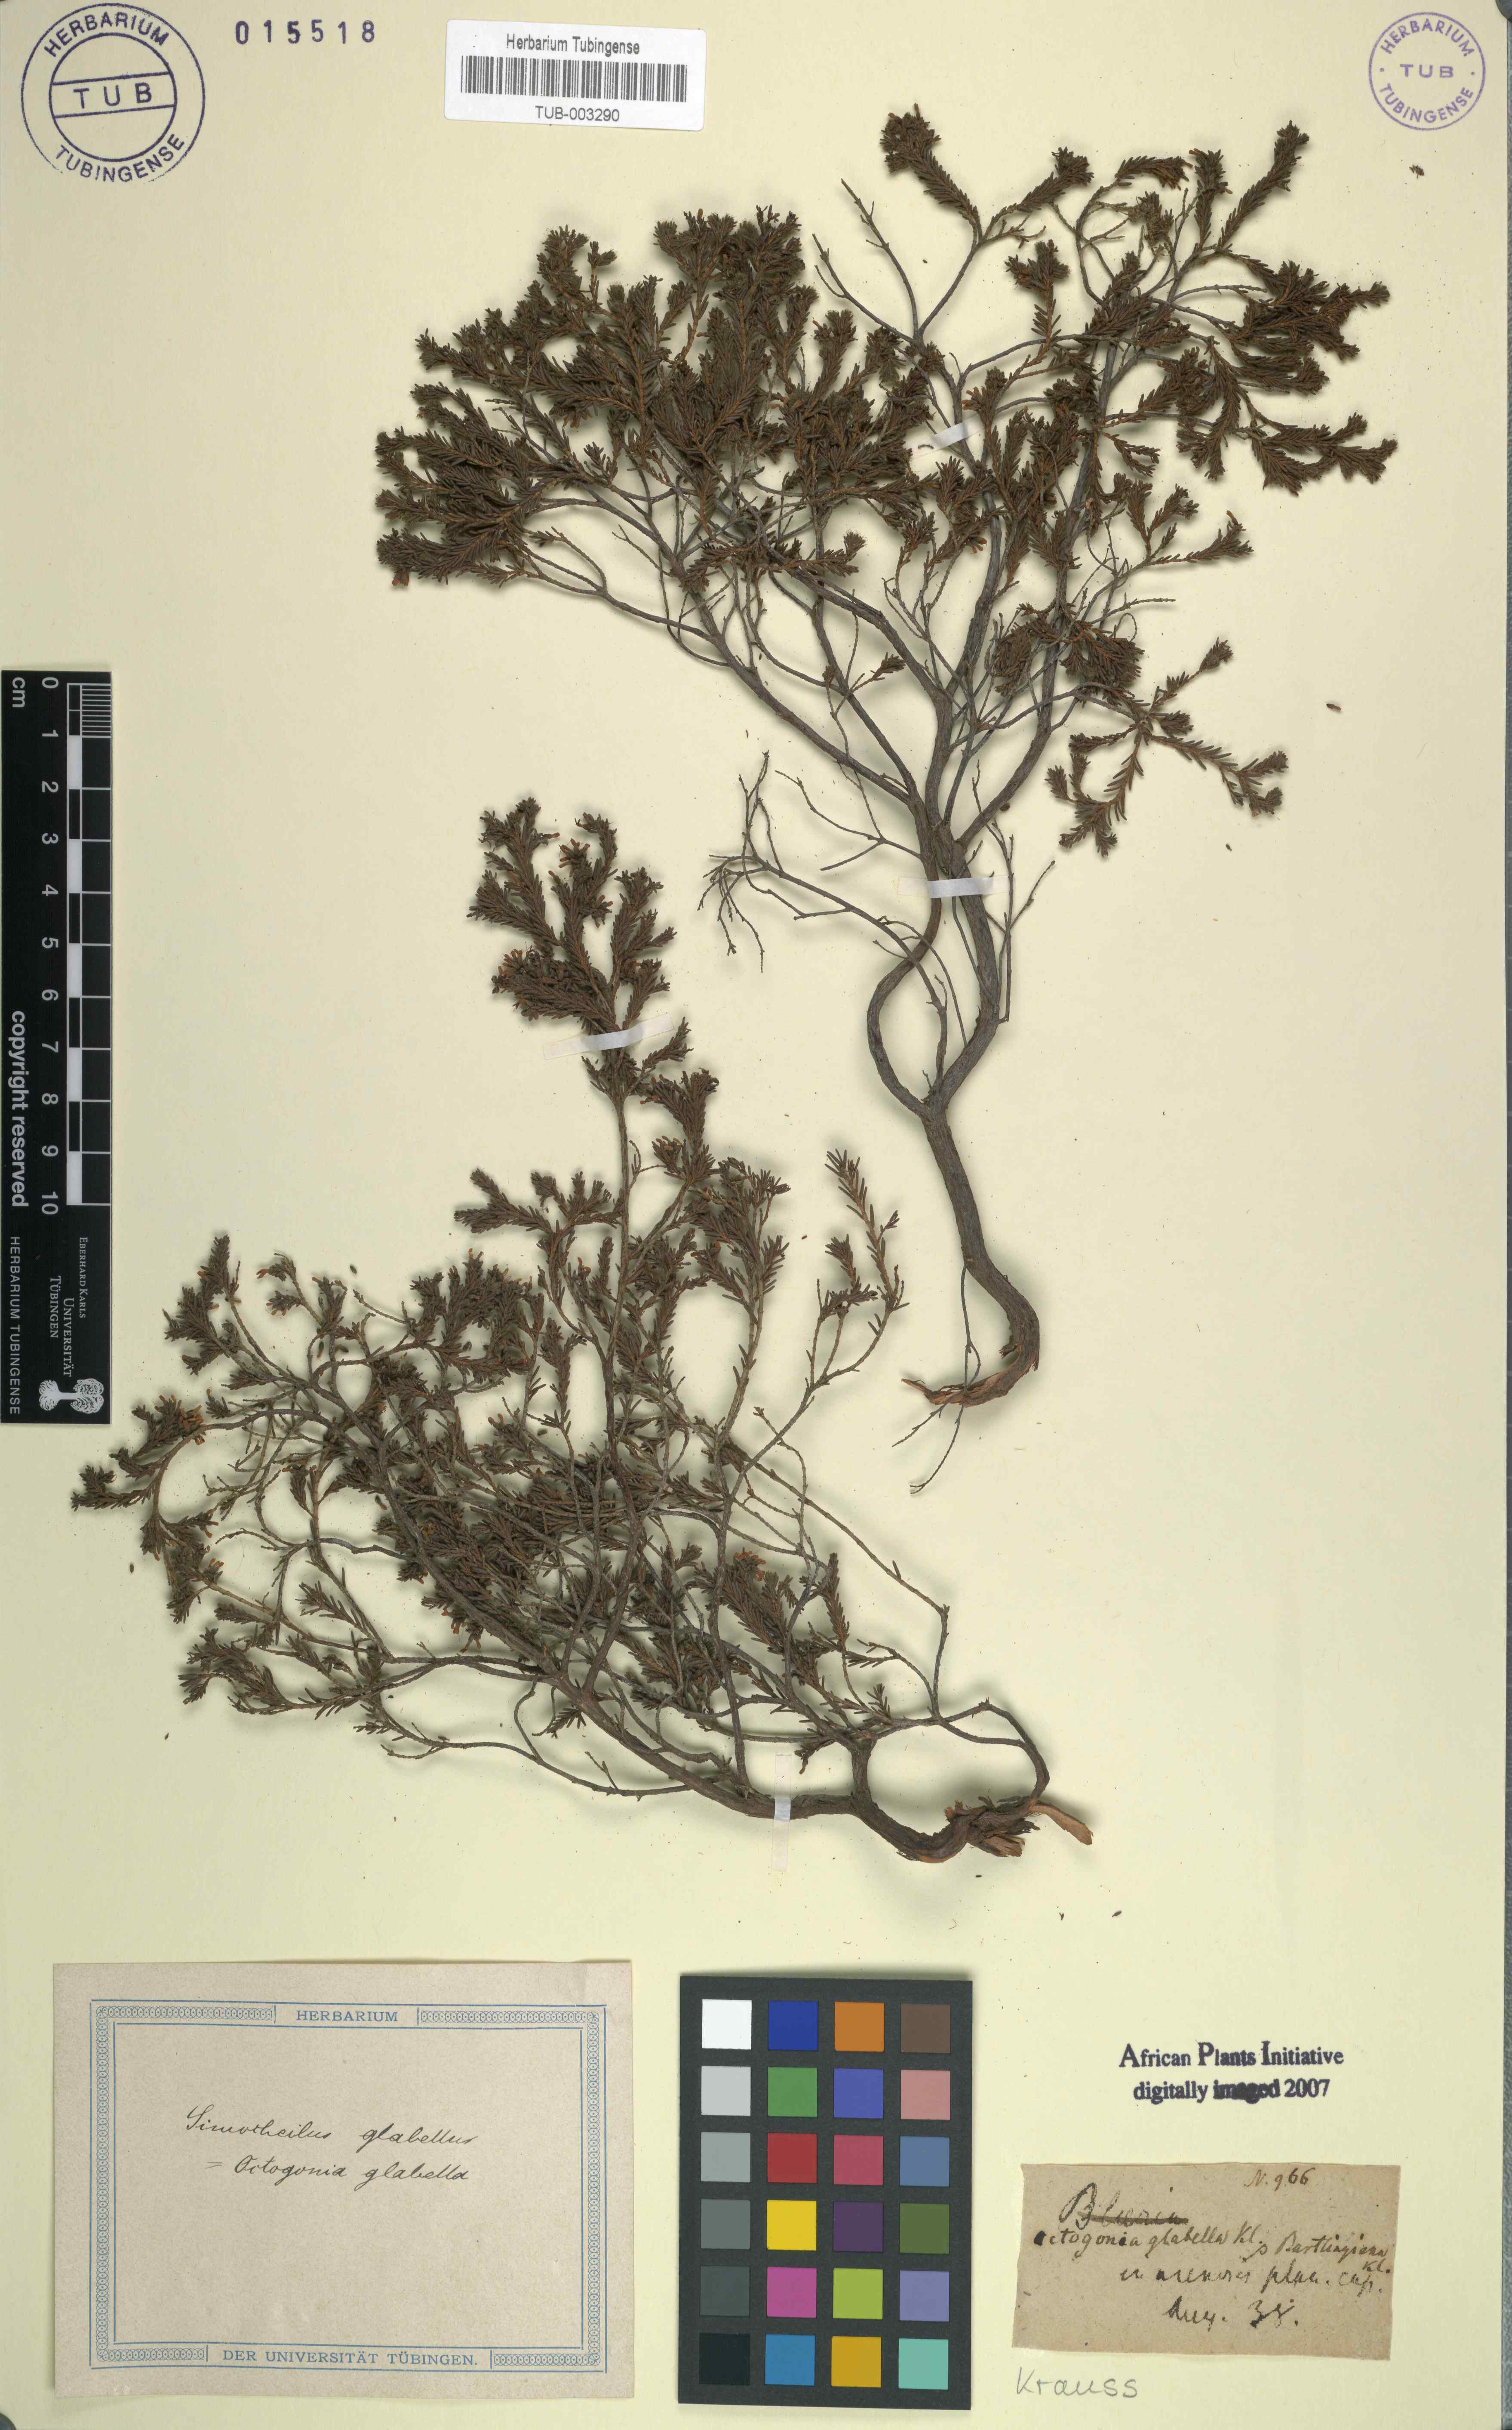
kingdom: Plantae
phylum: Tracheophyta
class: Magnoliopsida
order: Ericales
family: Ericaceae
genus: Erica
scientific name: Erica glabella
